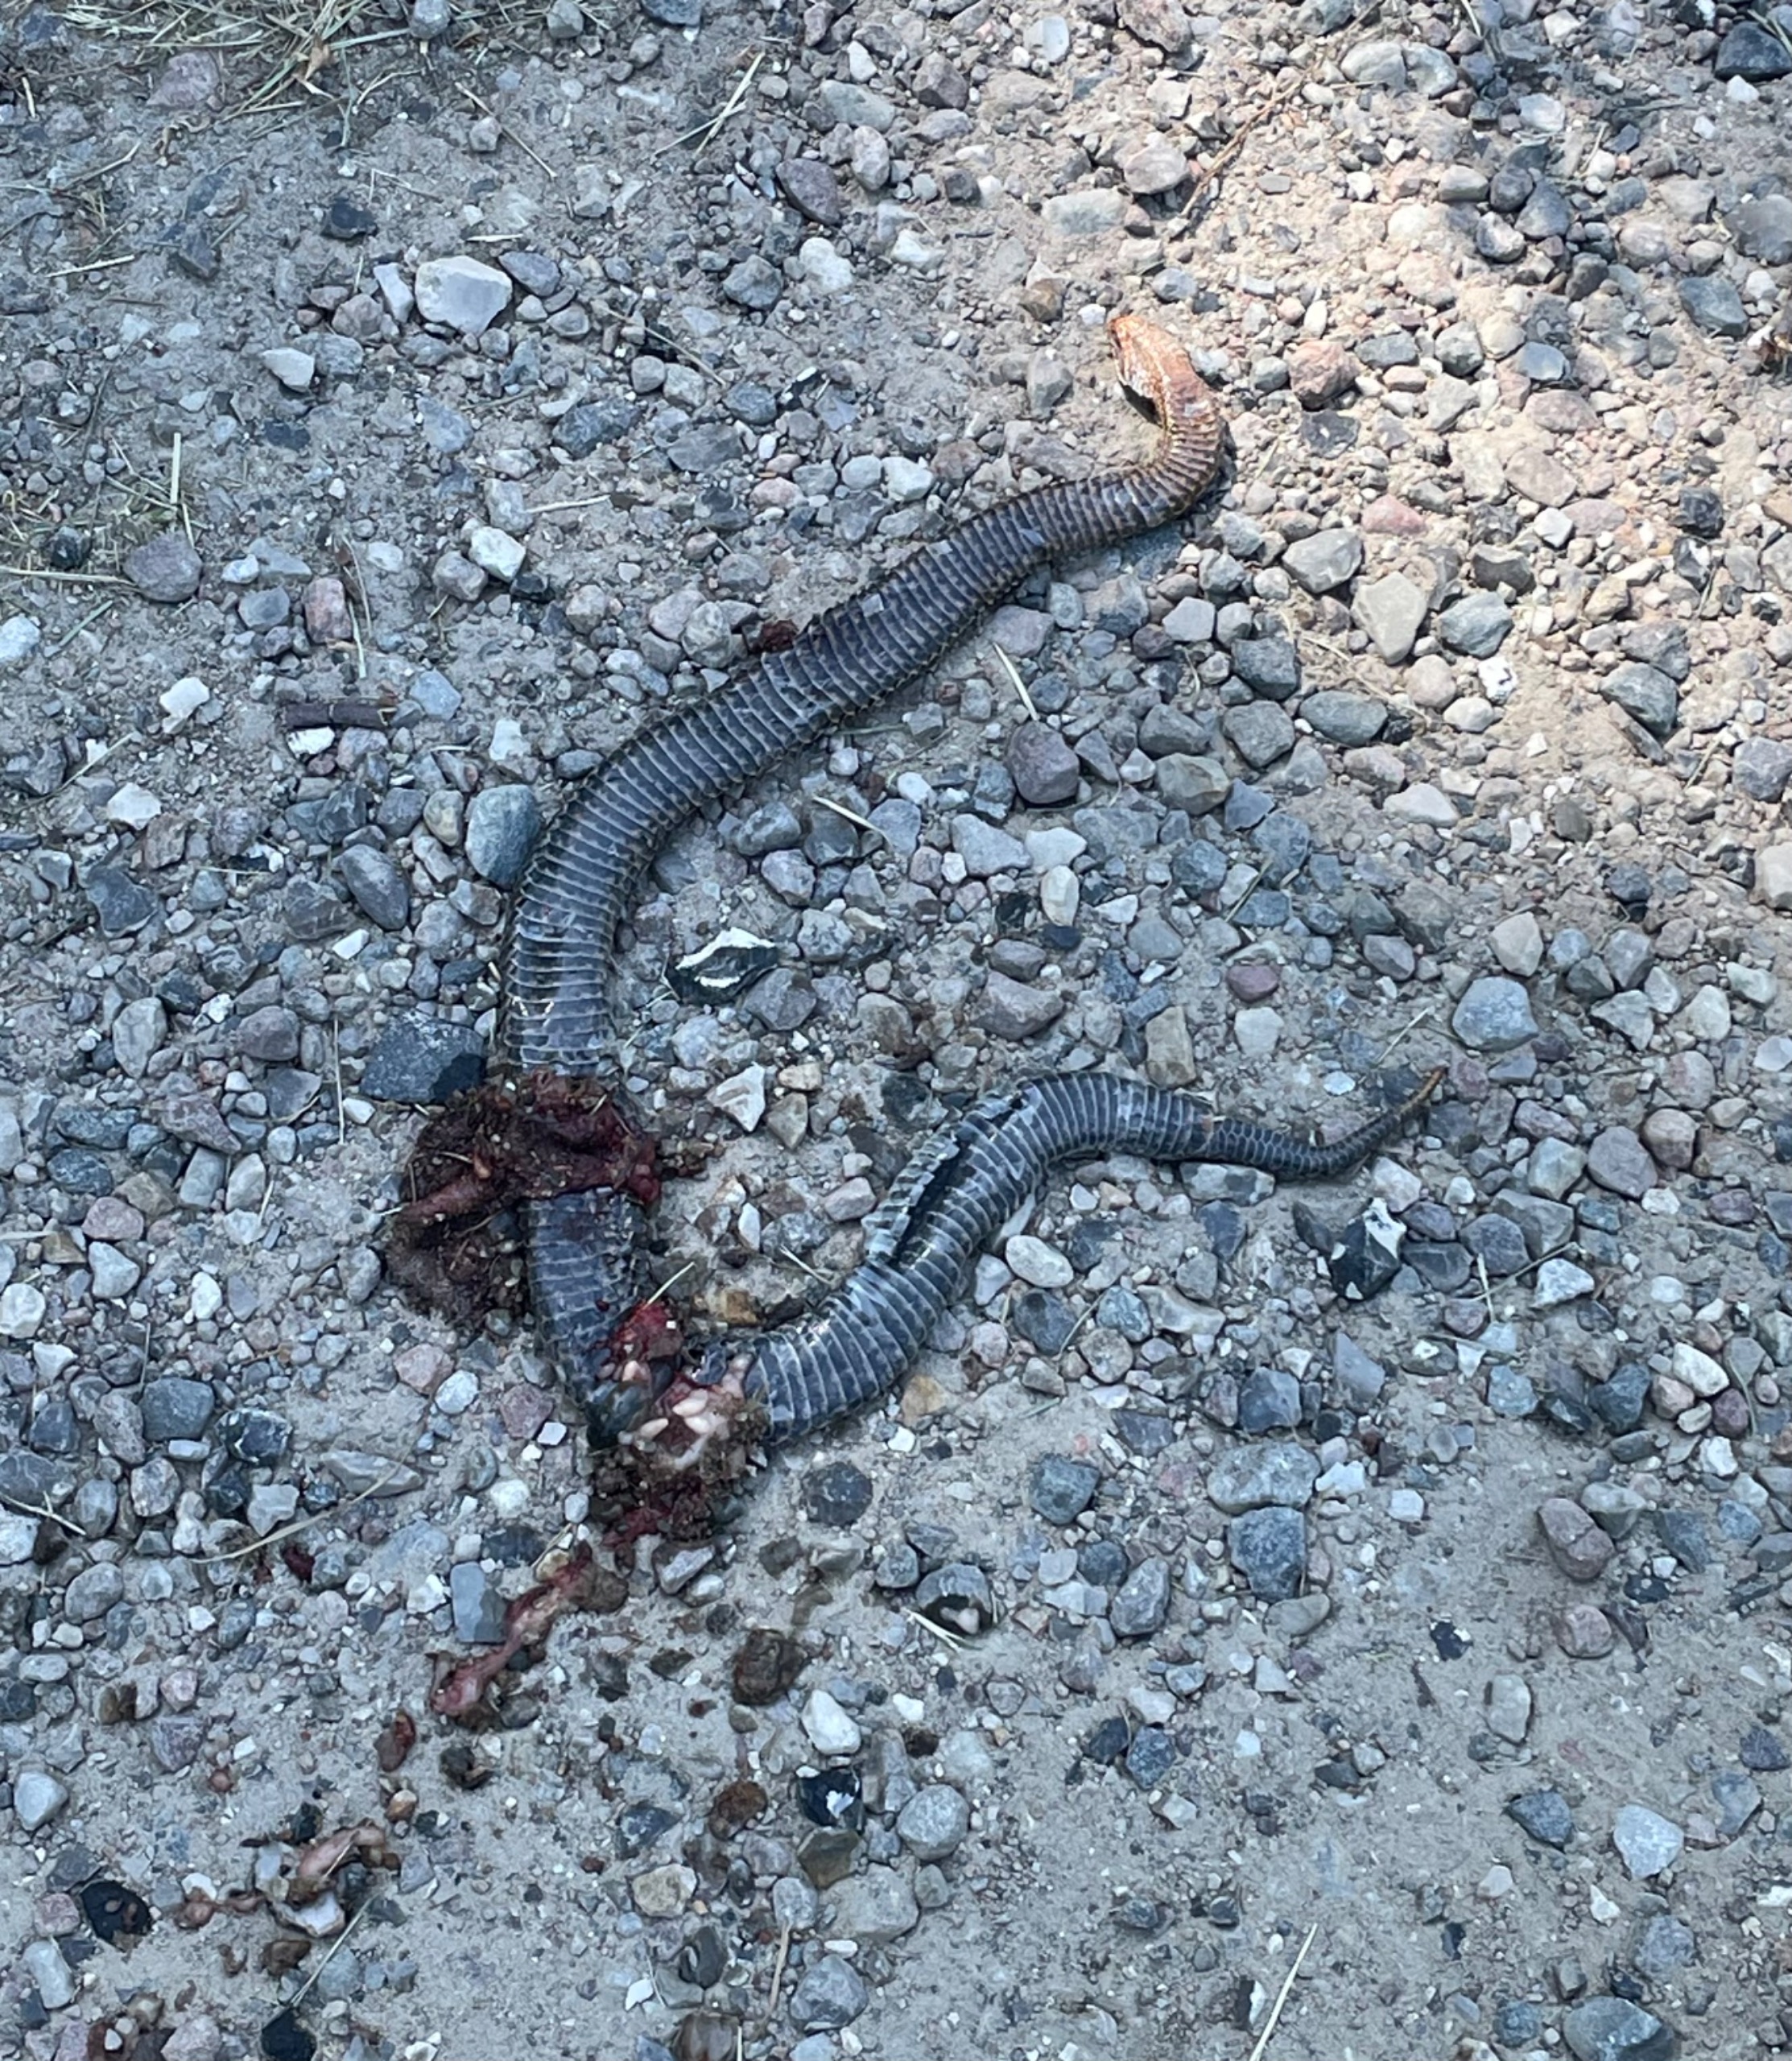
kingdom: Animalia
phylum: Chordata
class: Squamata
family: Viperidae
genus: Vipera
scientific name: Vipera berus
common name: Hugorm
